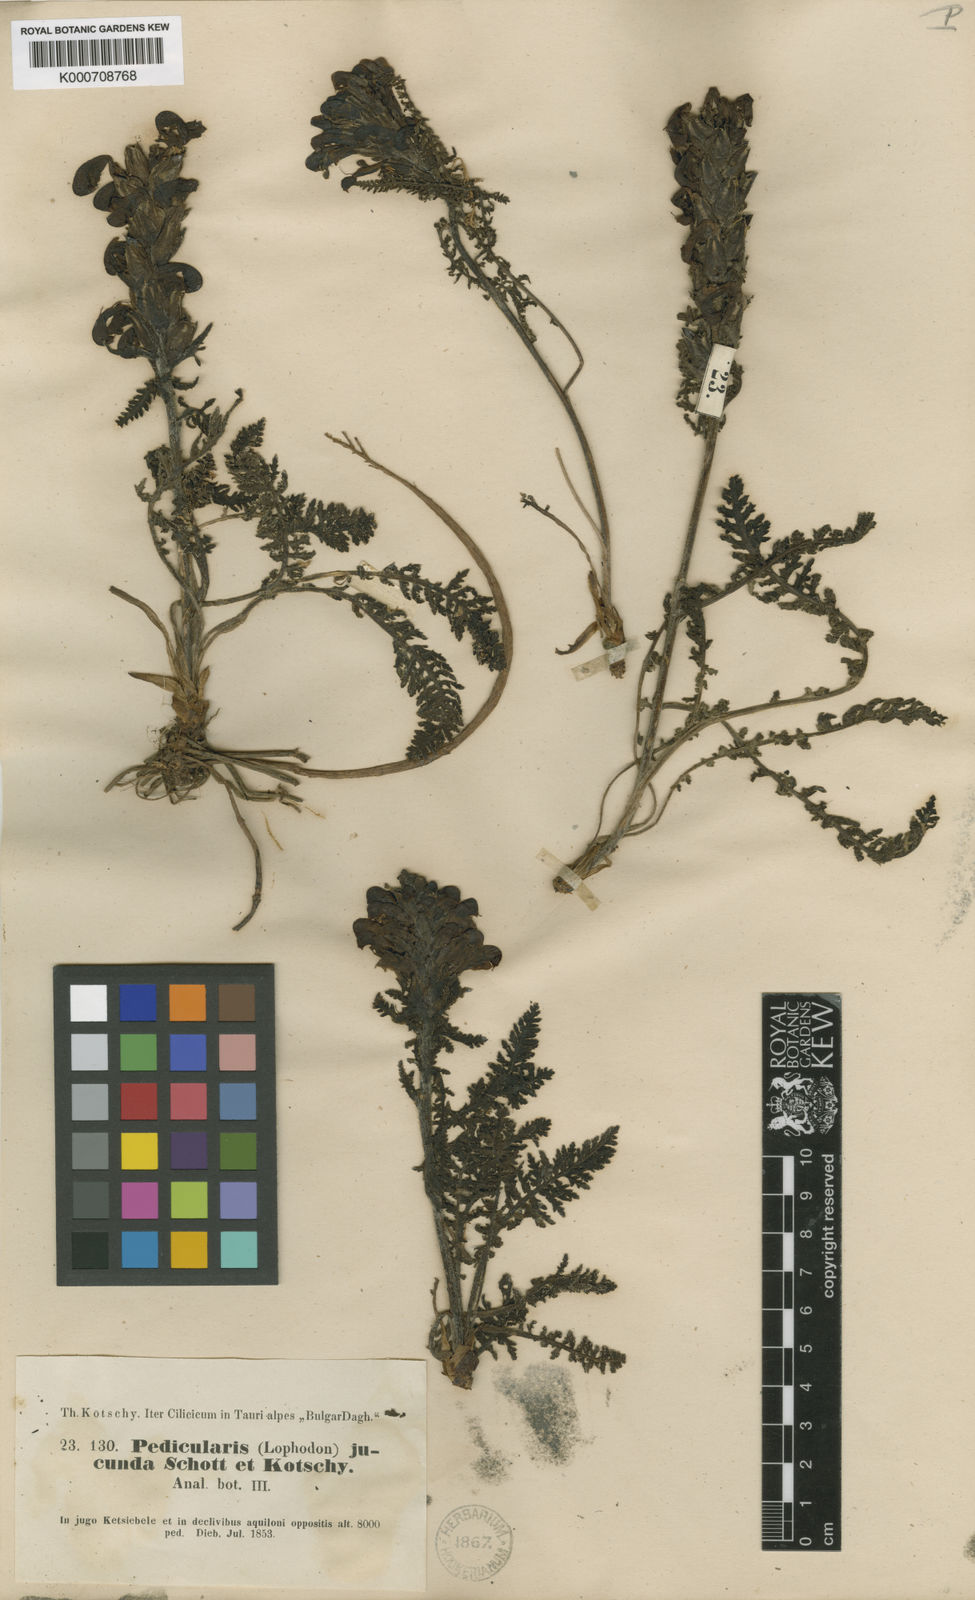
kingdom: Plantae
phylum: Tracheophyta
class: Magnoliopsida
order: Lamiales
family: Orobanchaceae
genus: Pedicularis
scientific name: Pedicularis comosa
